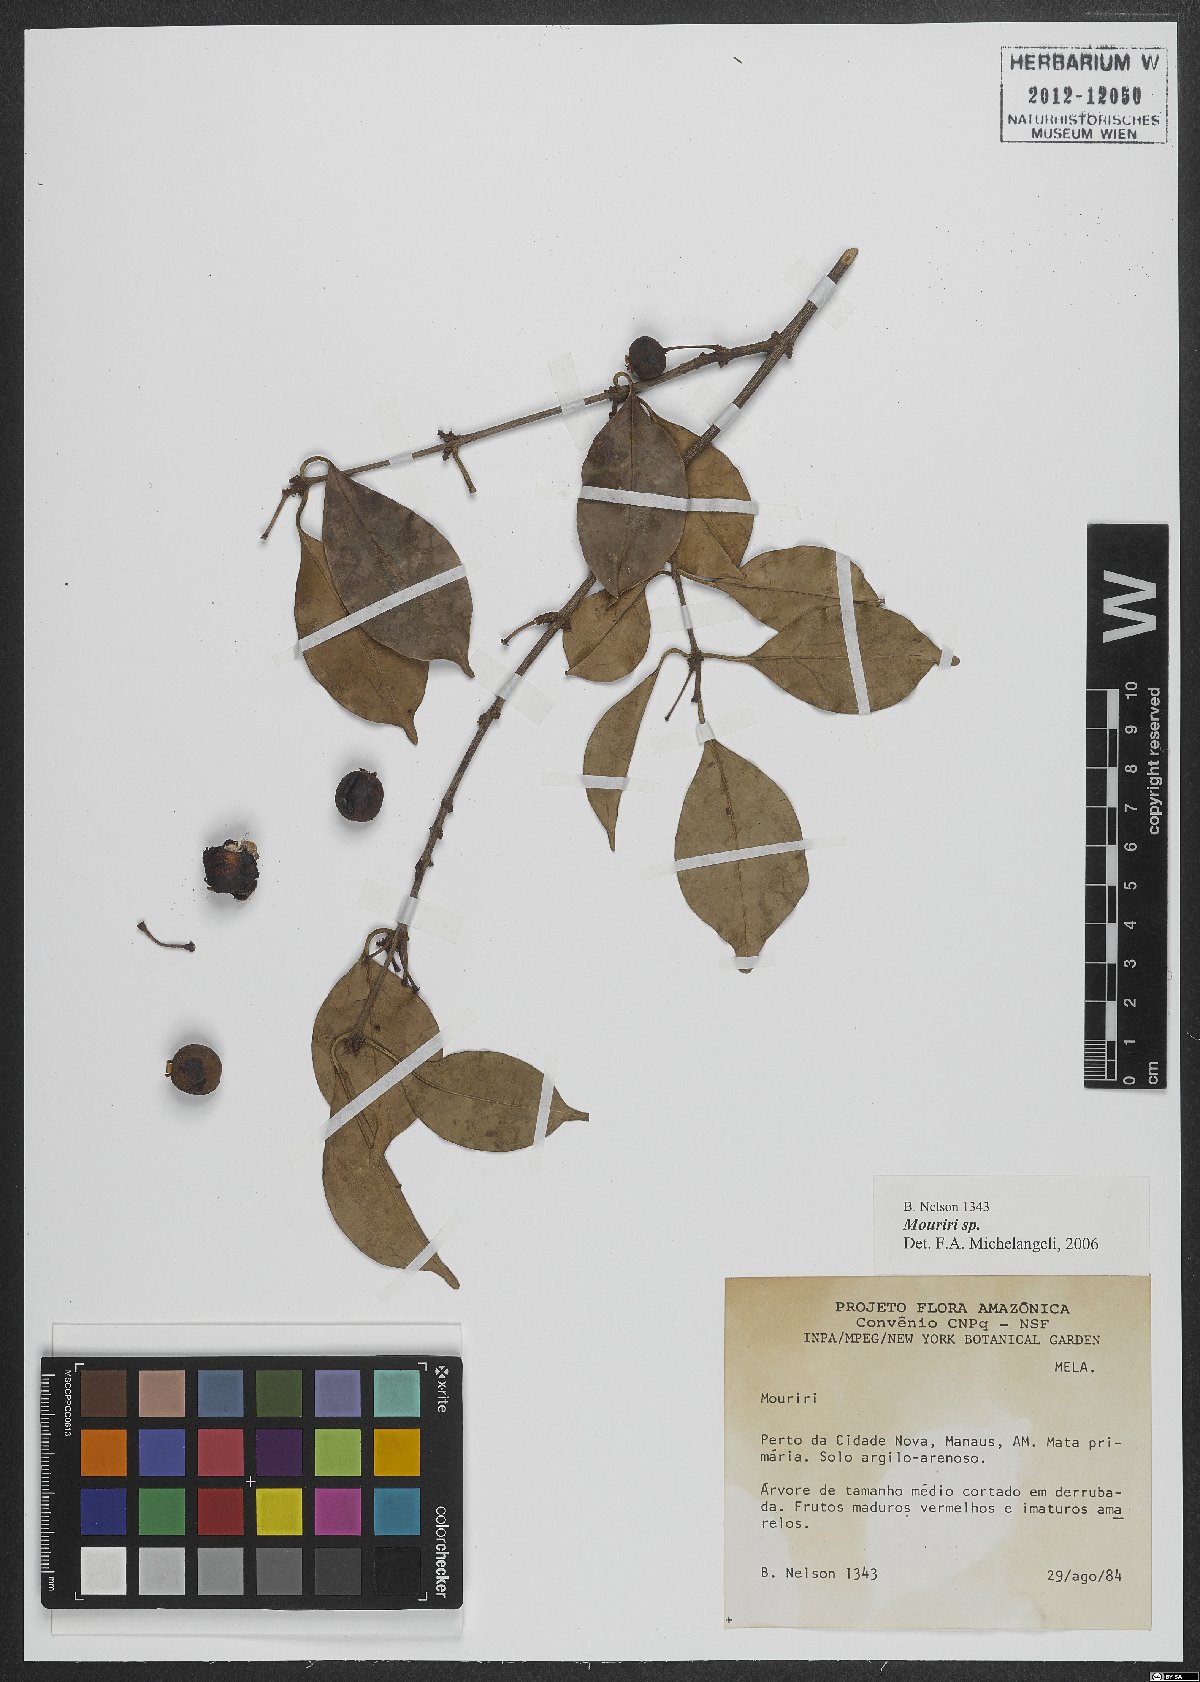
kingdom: Plantae
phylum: Tracheophyta
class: Magnoliopsida
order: Myrtales
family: Melastomataceae
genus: Mouriri
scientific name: Mouriri
